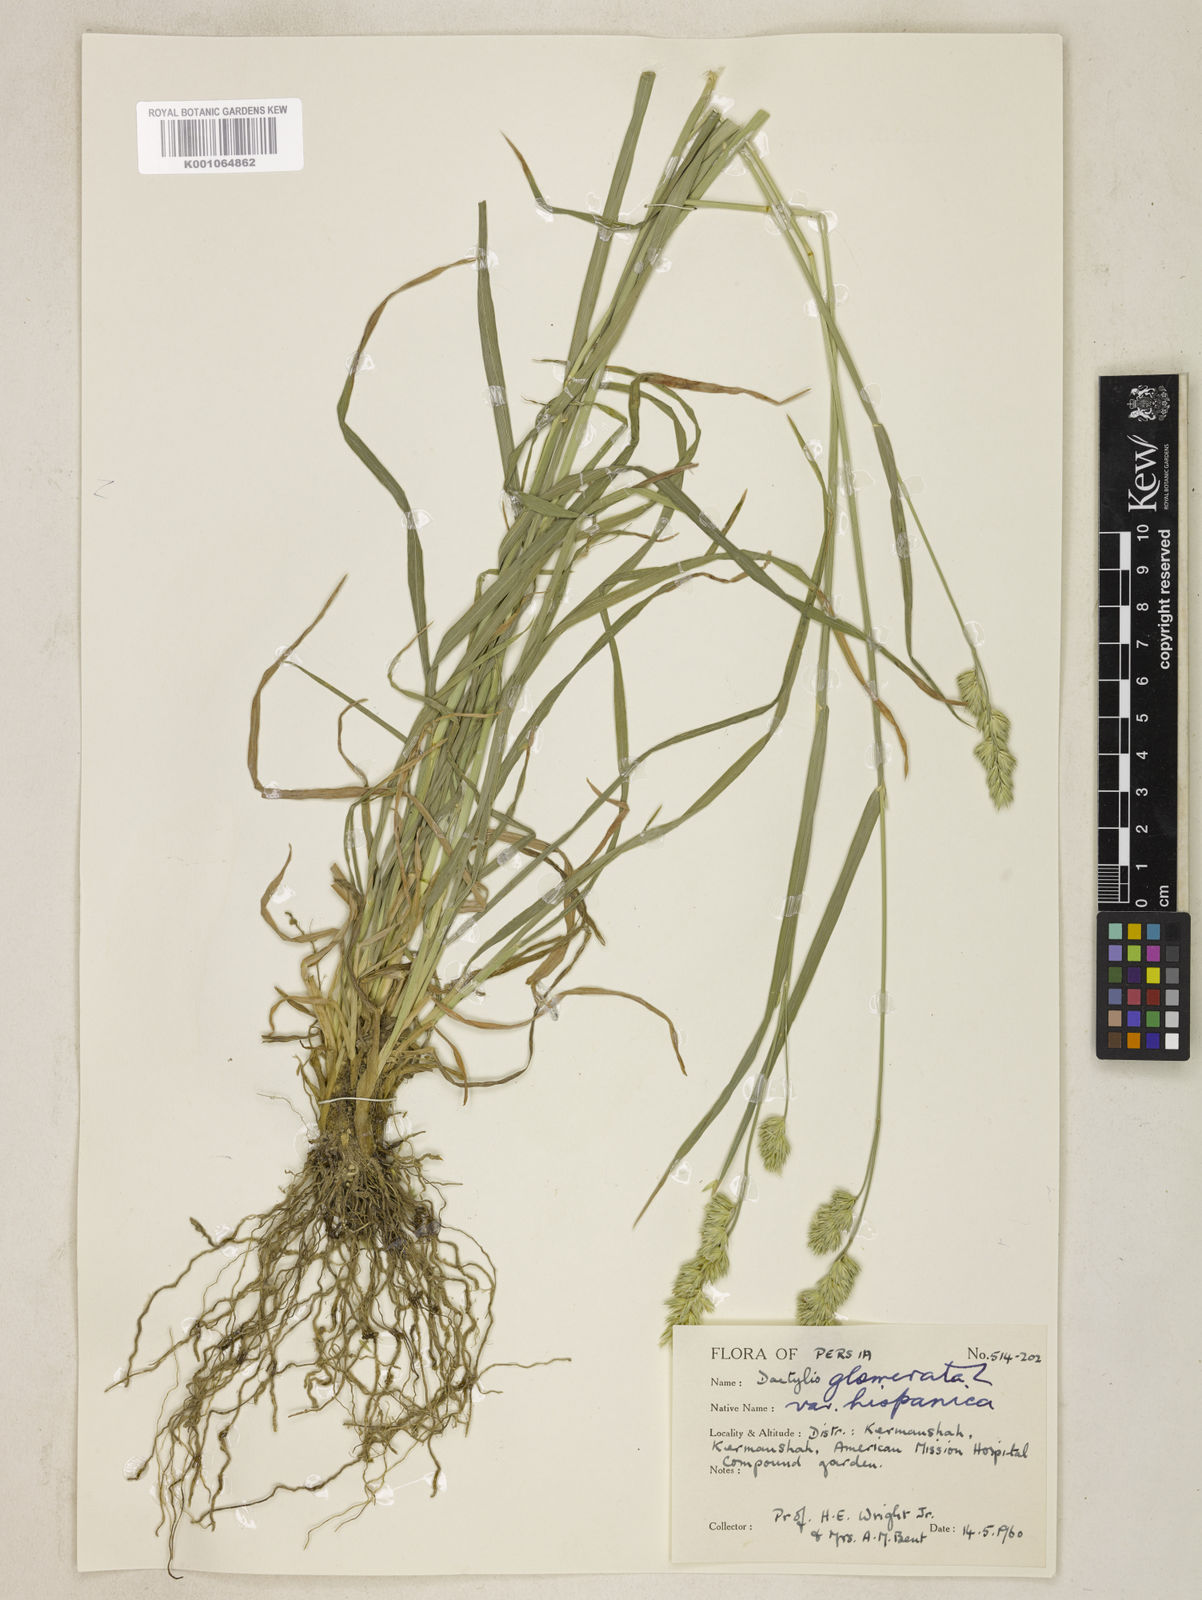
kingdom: Plantae
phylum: Tracheophyta
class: Liliopsida
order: Poales
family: Poaceae
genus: Dactylis
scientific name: Dactylis glomerata
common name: Orchardgrass
